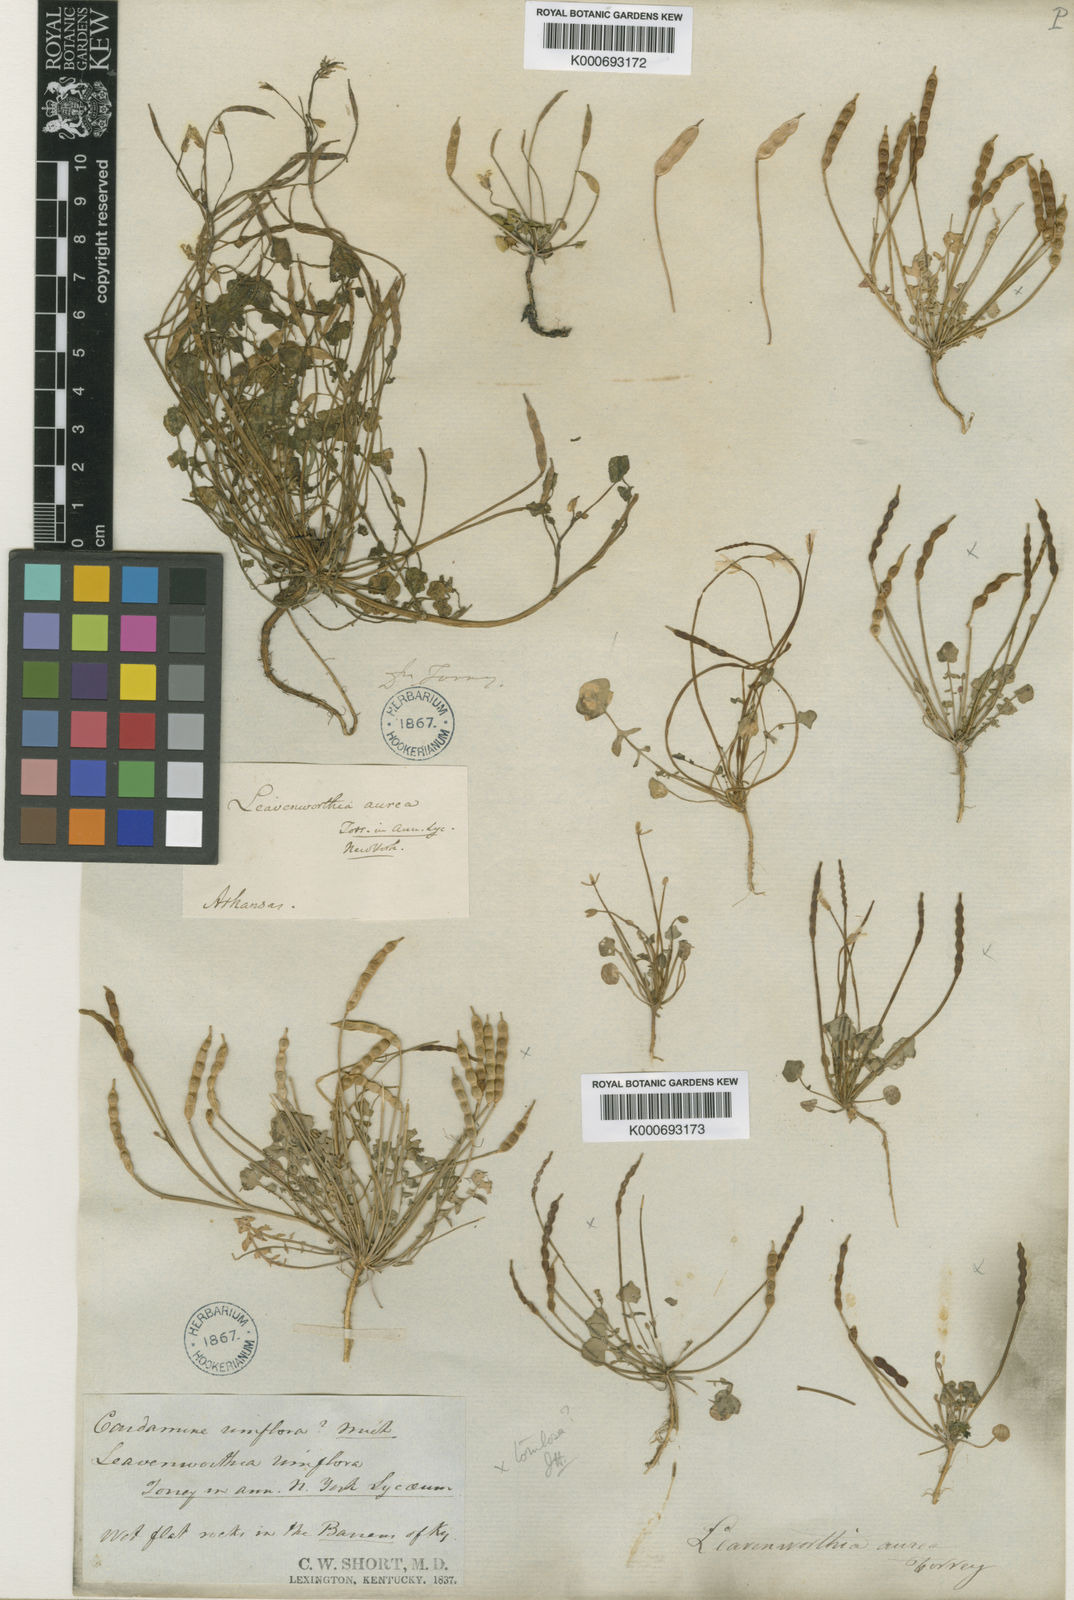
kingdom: Plantae
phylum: Tracheophyta
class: Magnoliopsida
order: Brassicales
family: Brassicaceae
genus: Leavenworthia
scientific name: Leavenworthia aurea
